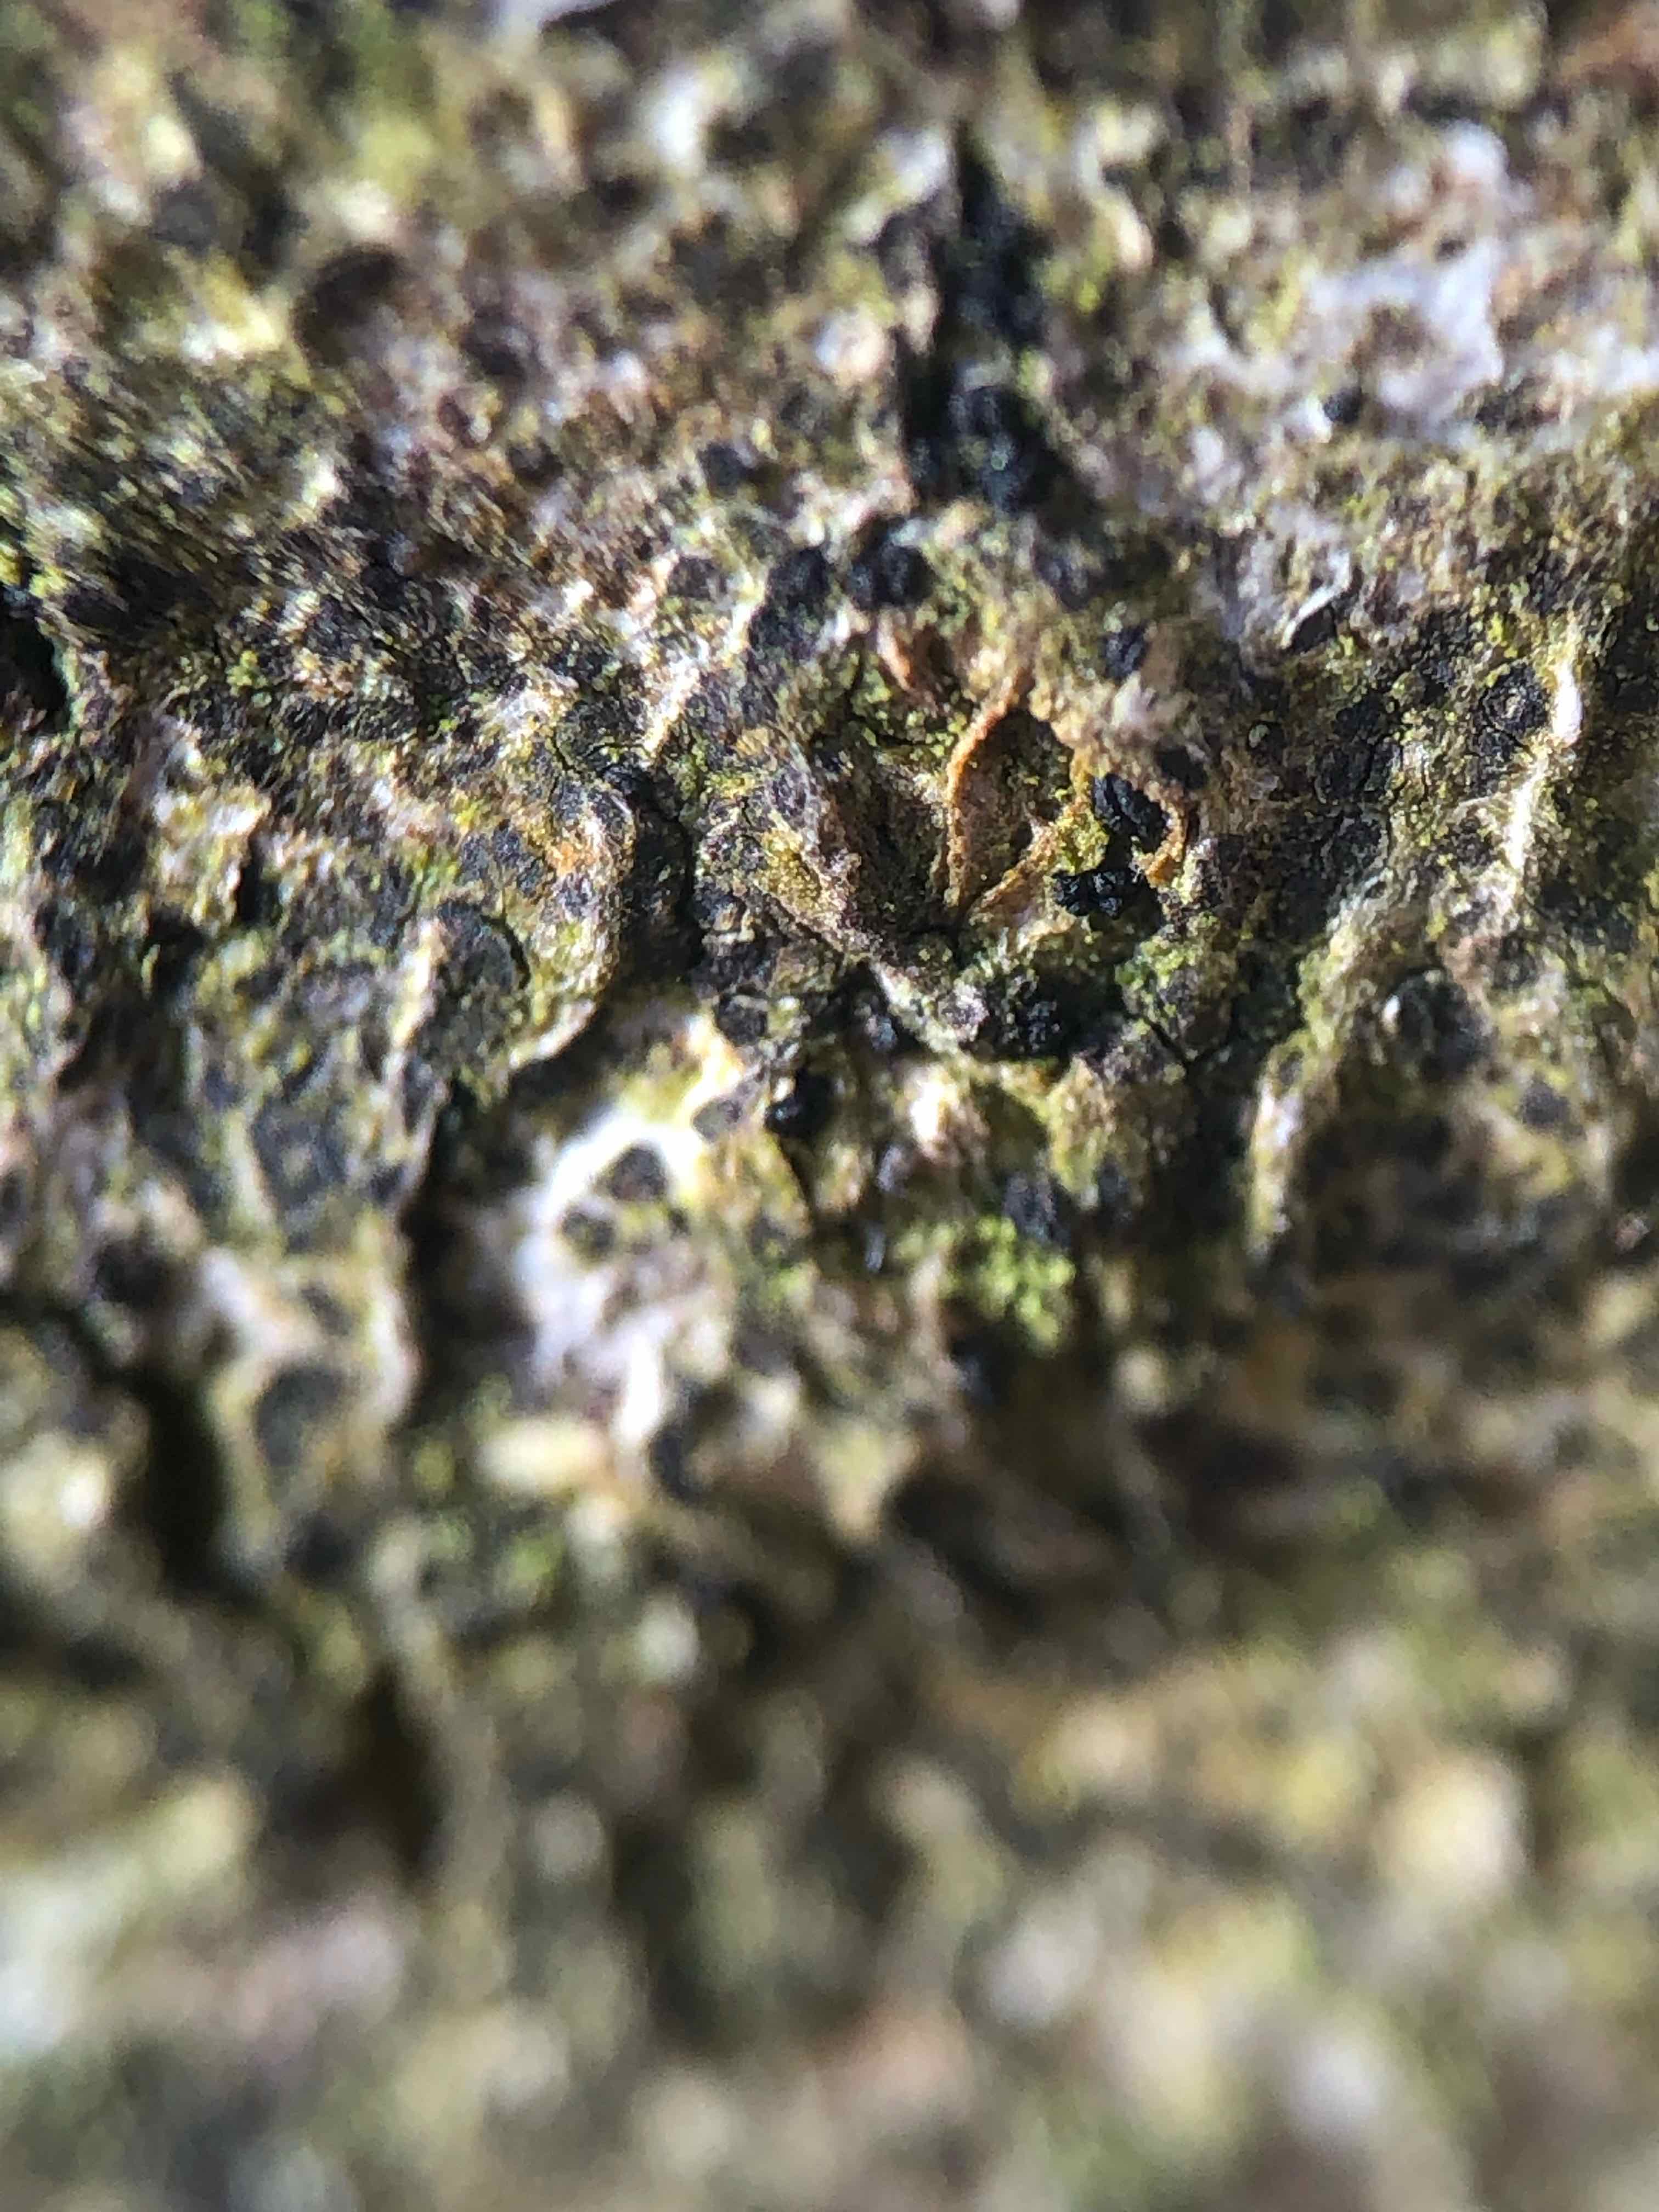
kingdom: Fungi
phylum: Ascomycota
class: Leotiomycetes
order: Rhytismatales
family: Ascodichaenaceae
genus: Ascodichaena
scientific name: Ascodichaena rugosa
